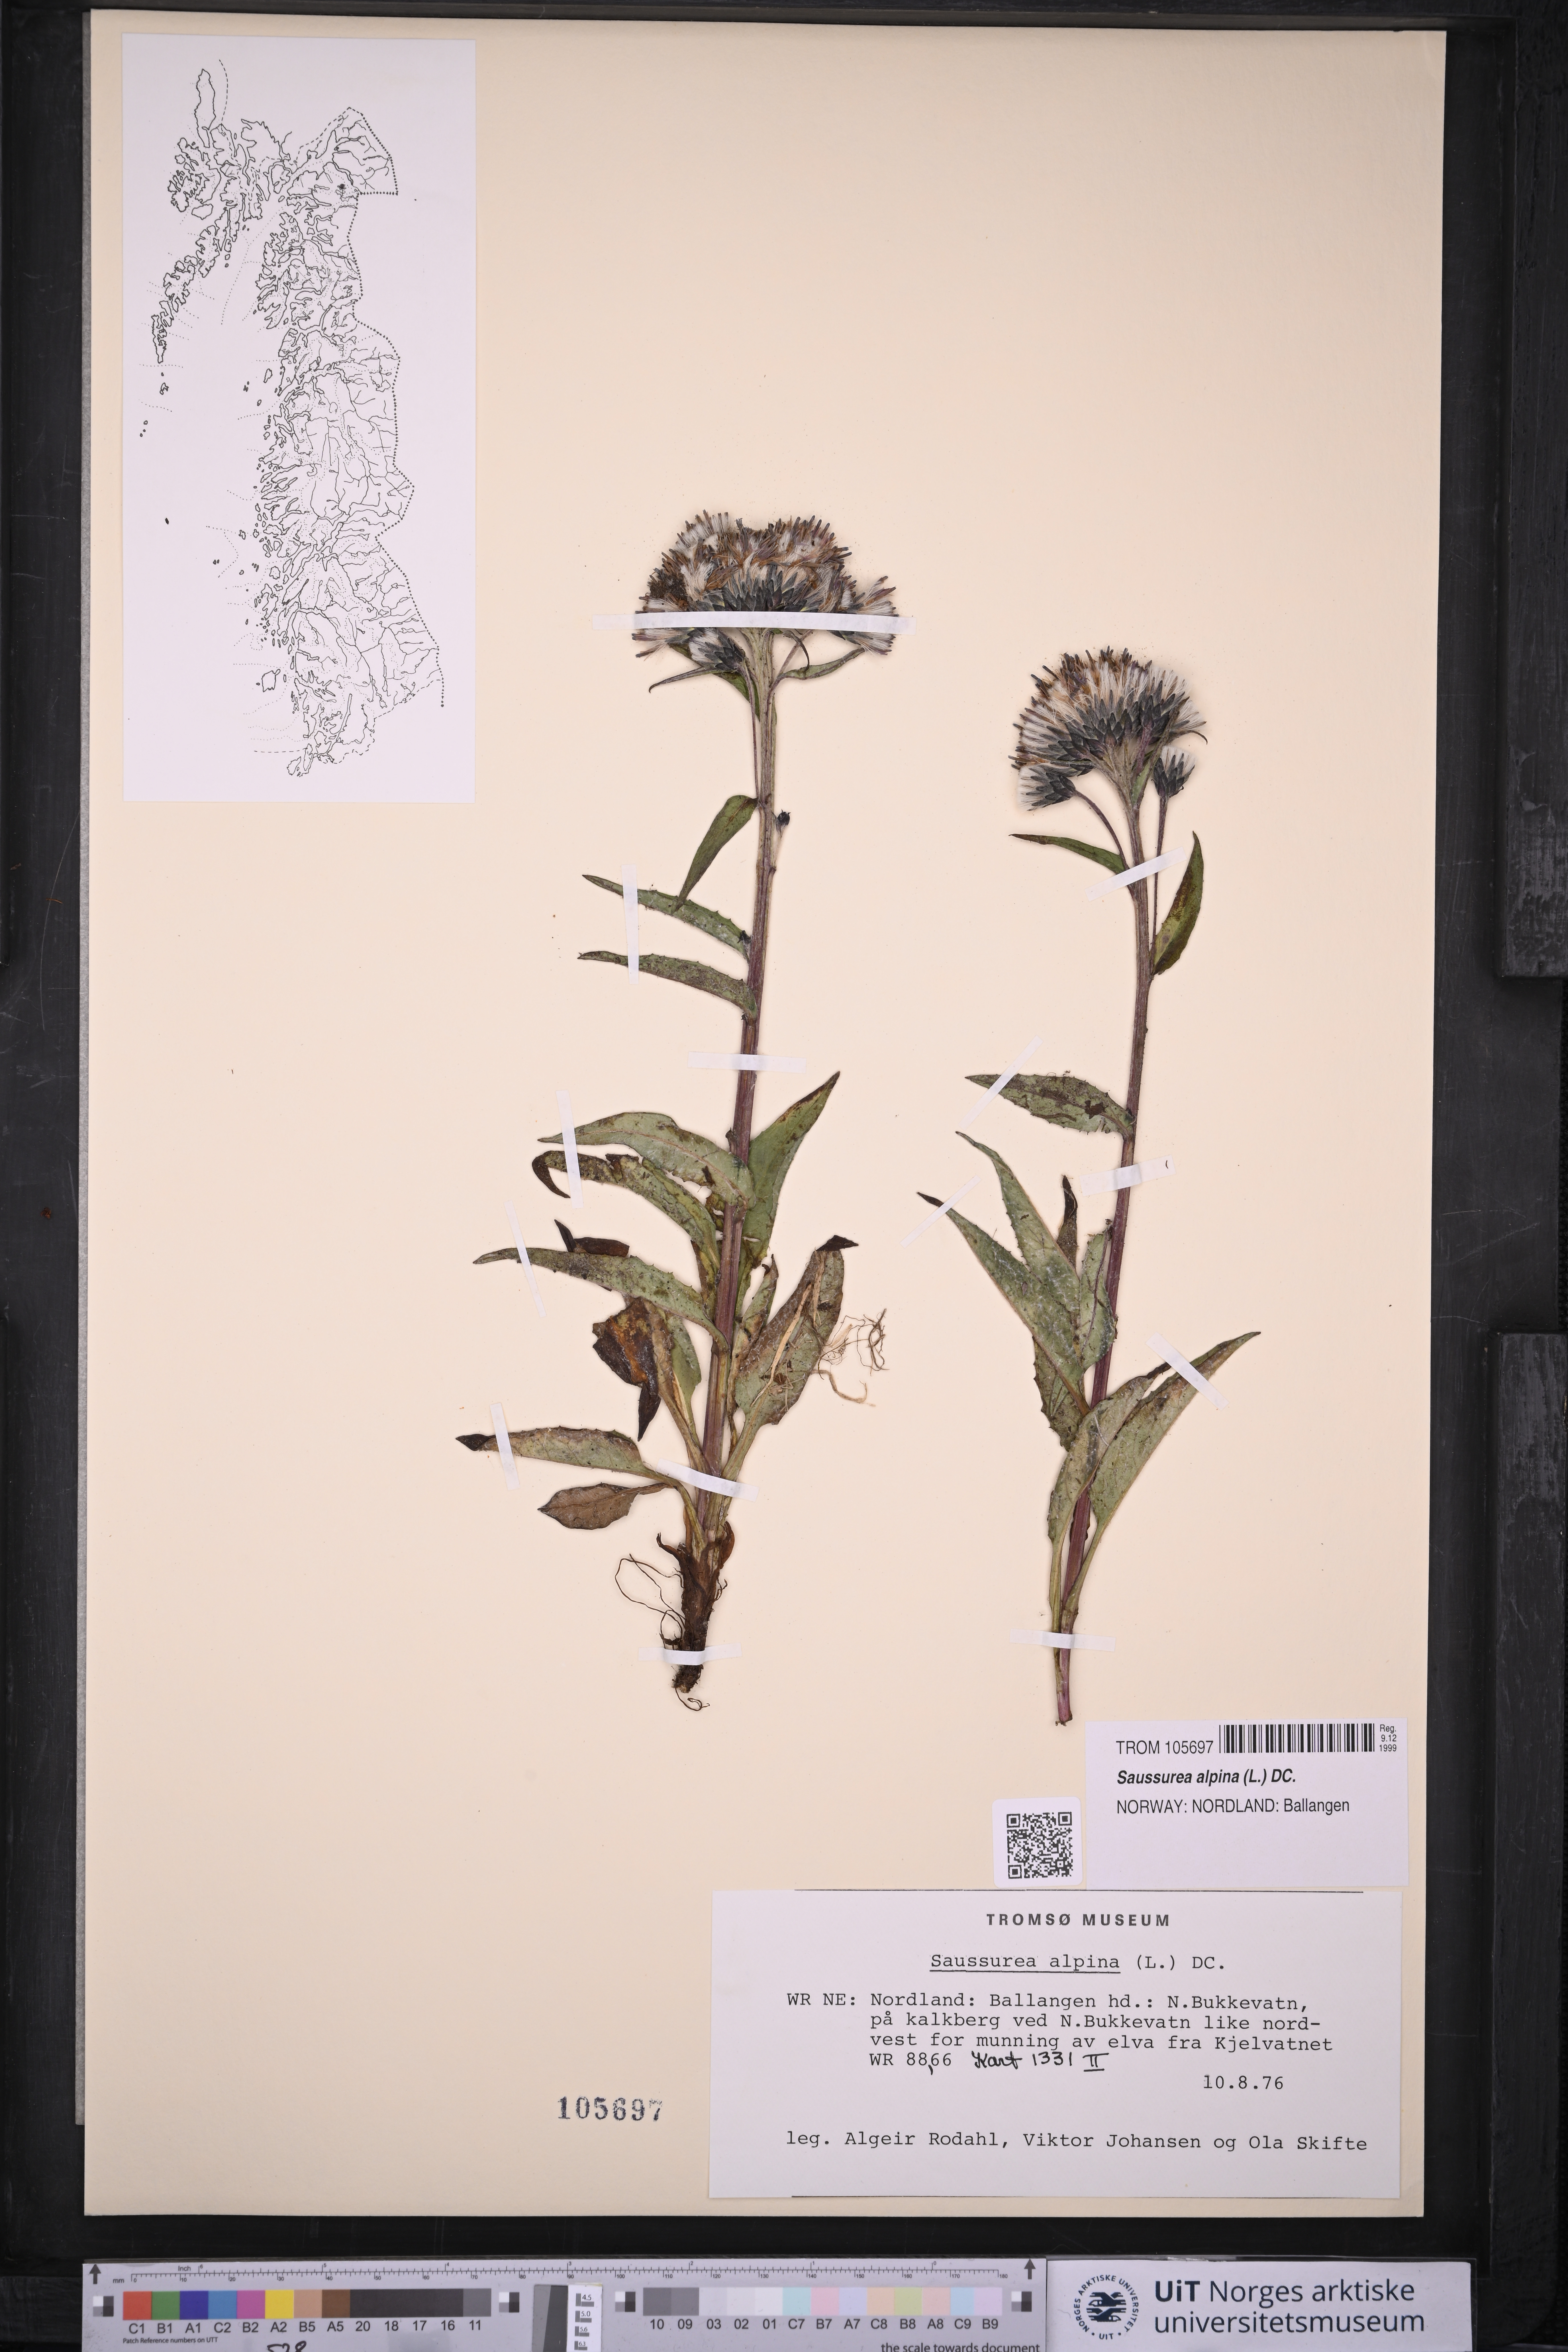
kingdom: Plantae
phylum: Tracheophyta
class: Magnoliopsida
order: Asterales
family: Asteraceae
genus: Saussurea
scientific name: Saussurea alpina
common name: Alpine saw-wort
